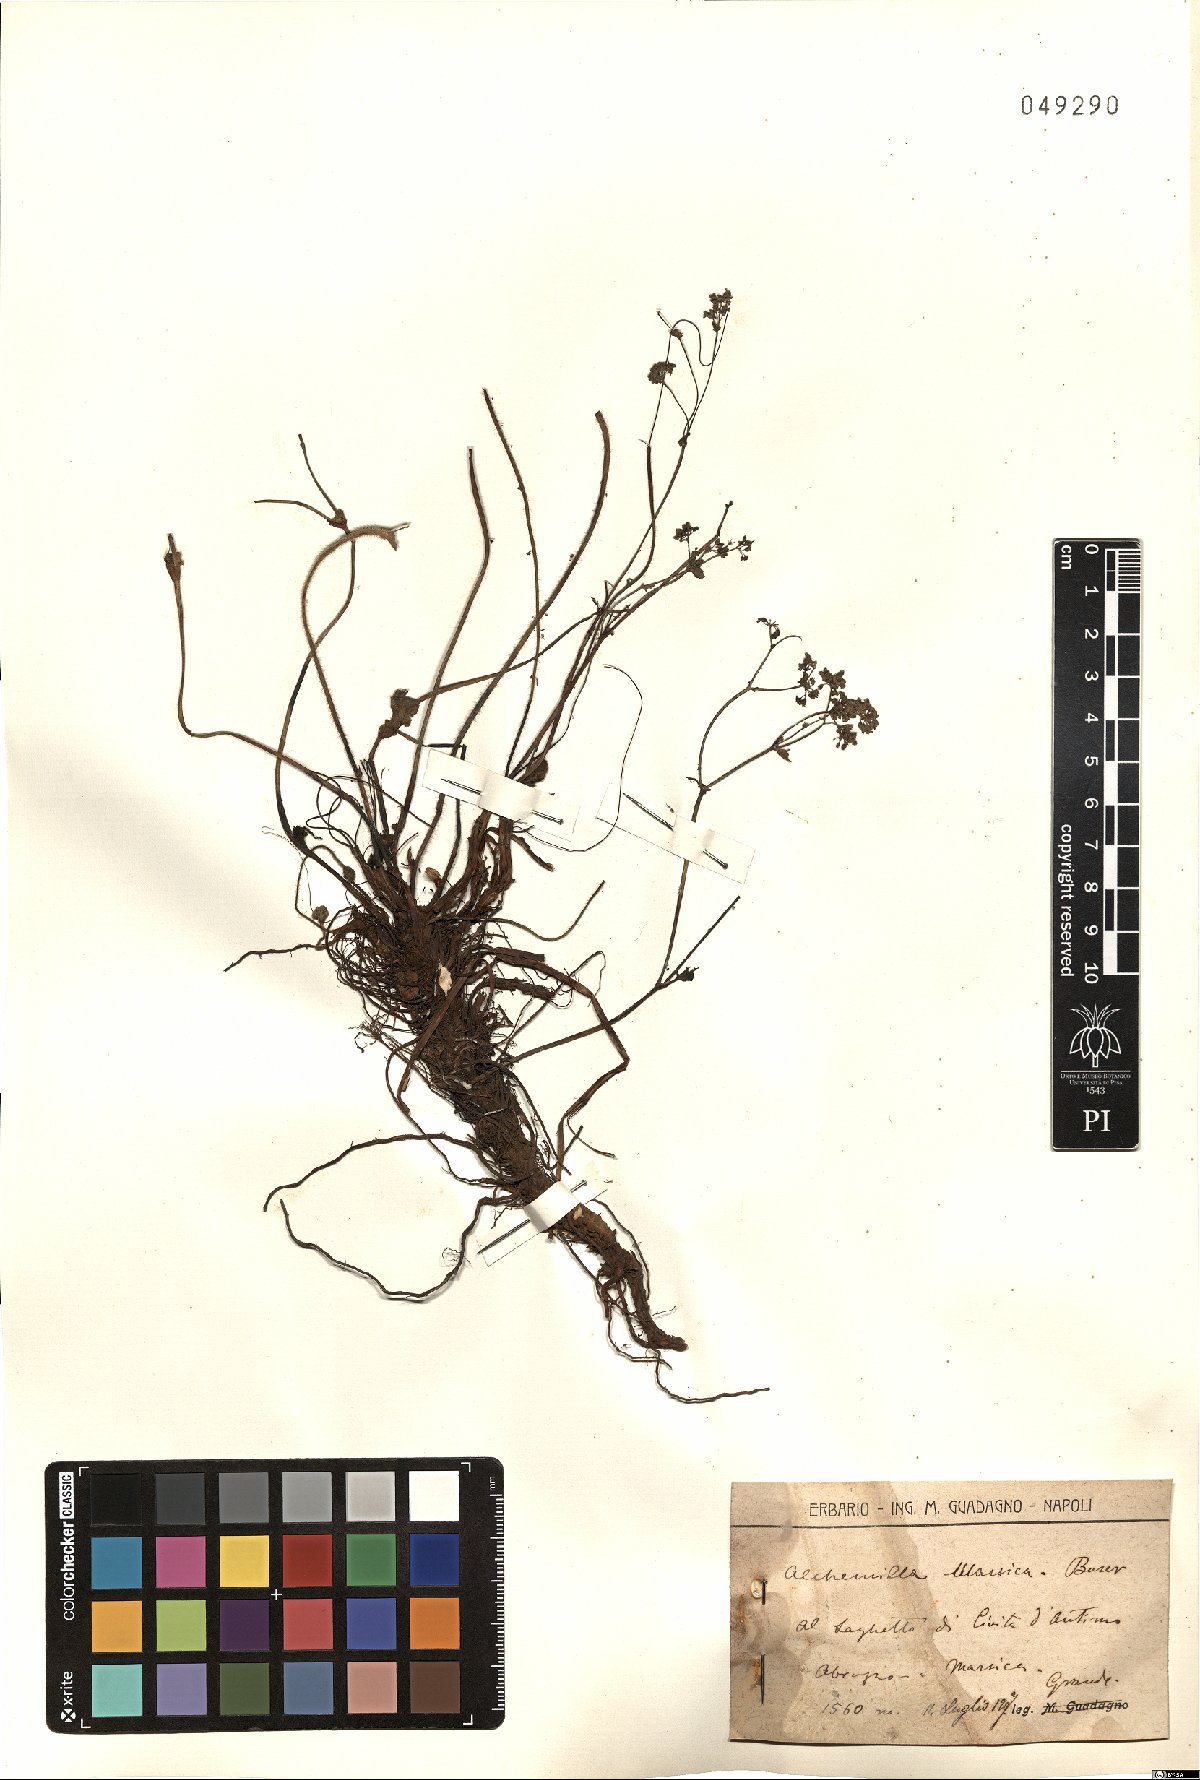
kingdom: Plantae
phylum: Tracheophyta
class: Magnoliopsida
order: Rosales
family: Rosaceae
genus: Alchemilla
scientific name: Alchemilla marsica
